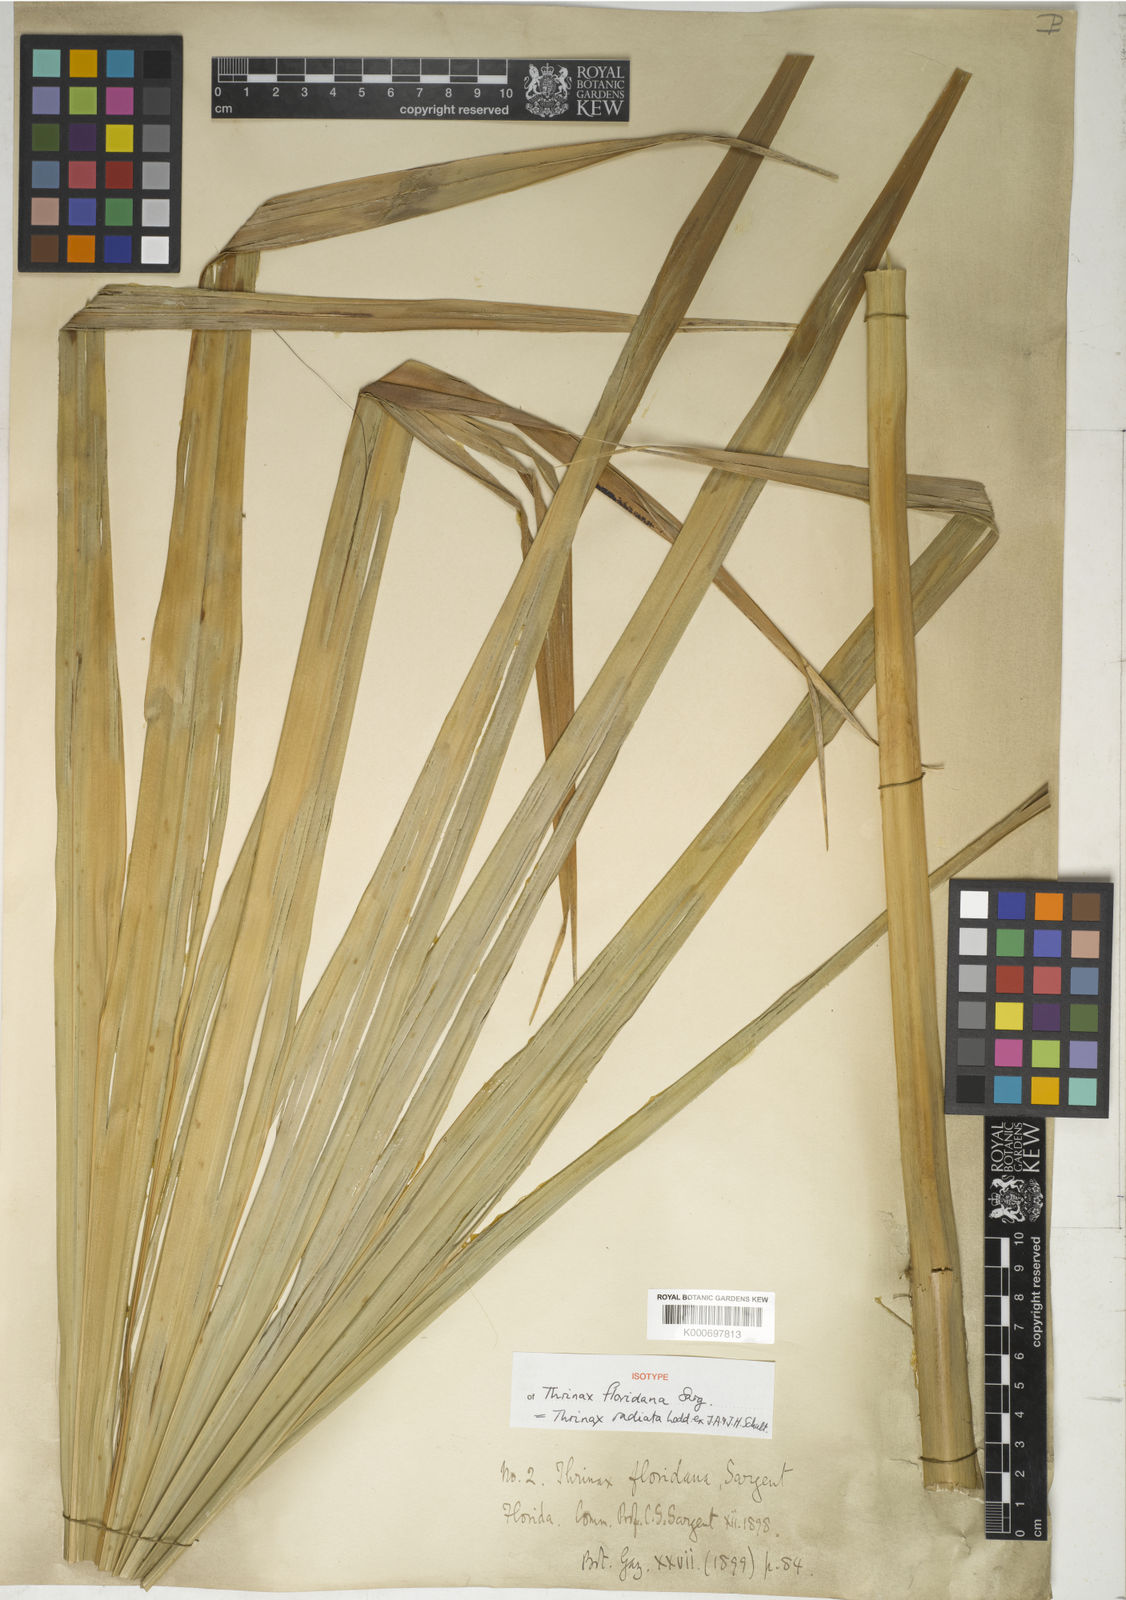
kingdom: Plantae
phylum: Tracheophyta
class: Liliopsida
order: Arecales
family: Arecaceae
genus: Thrinax
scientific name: Thrinax radiata
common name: Florida thatch
